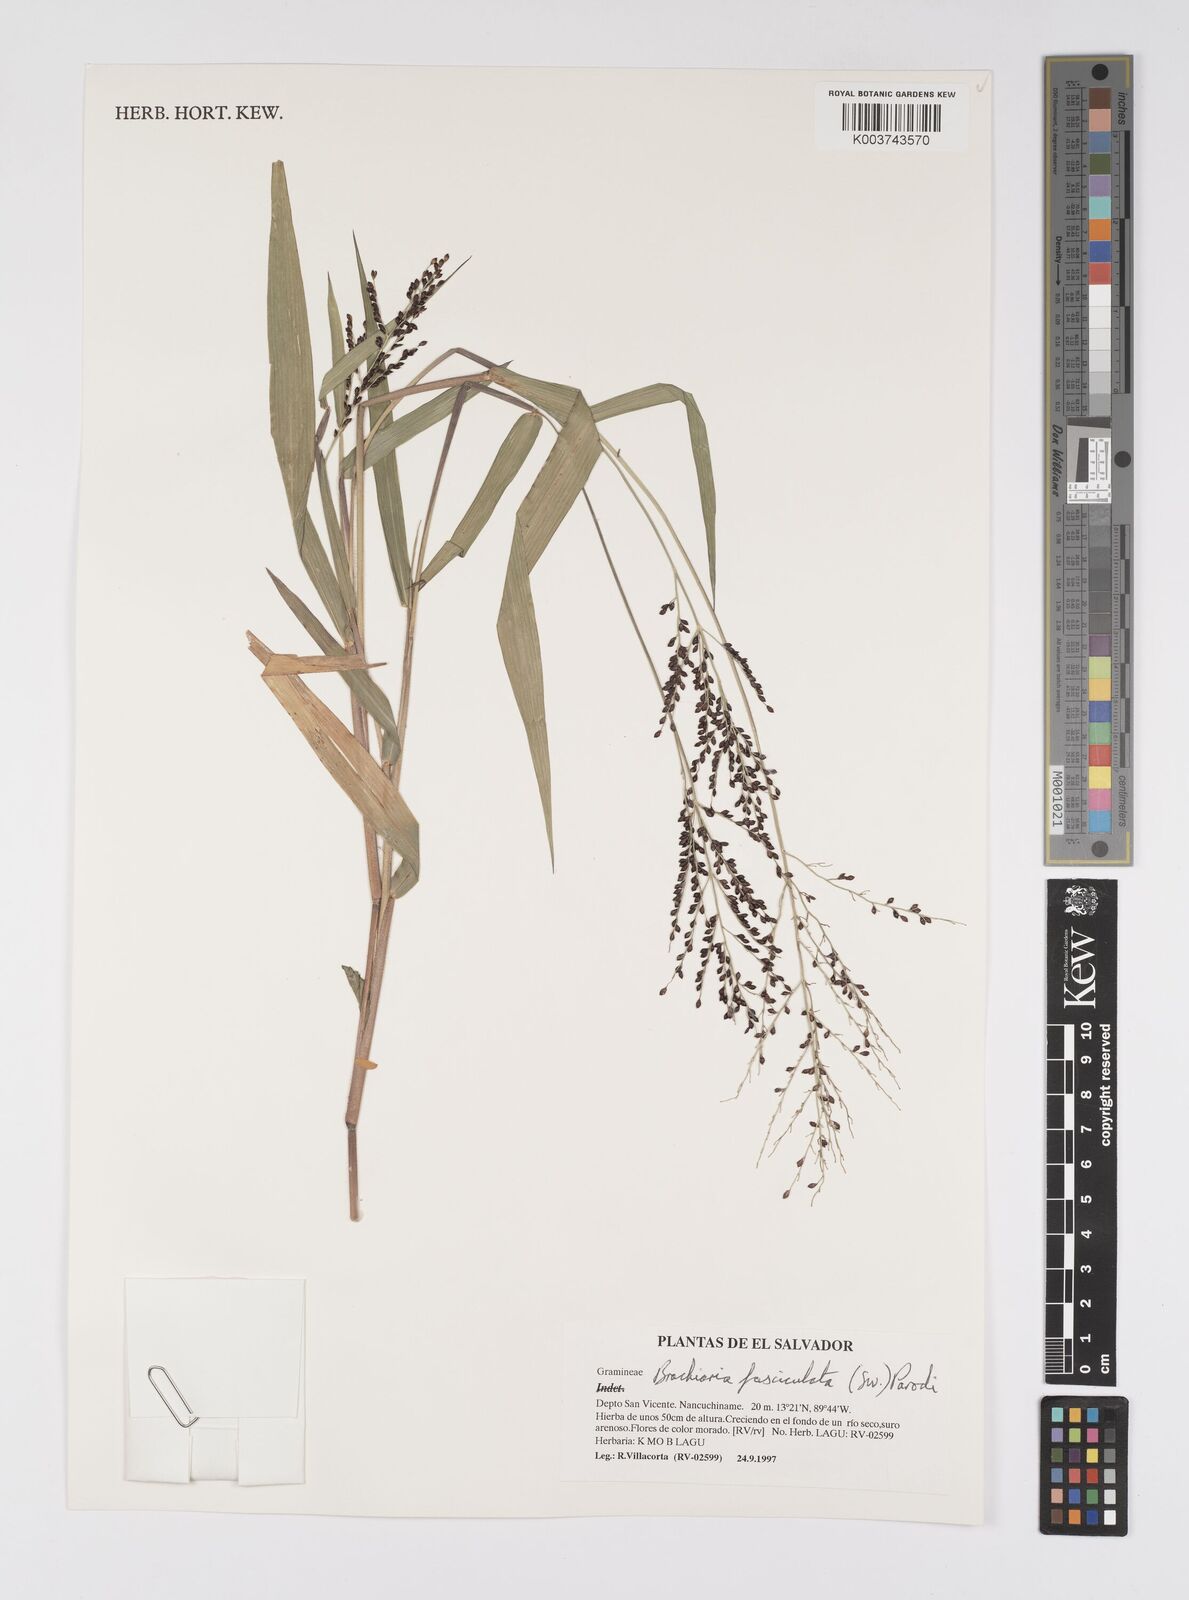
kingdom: Plantae
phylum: Tracheophyta
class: Liliopsida
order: Poales
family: Poaceae
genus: Urochloa
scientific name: Urochloa fusca
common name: Browntop signal grass
